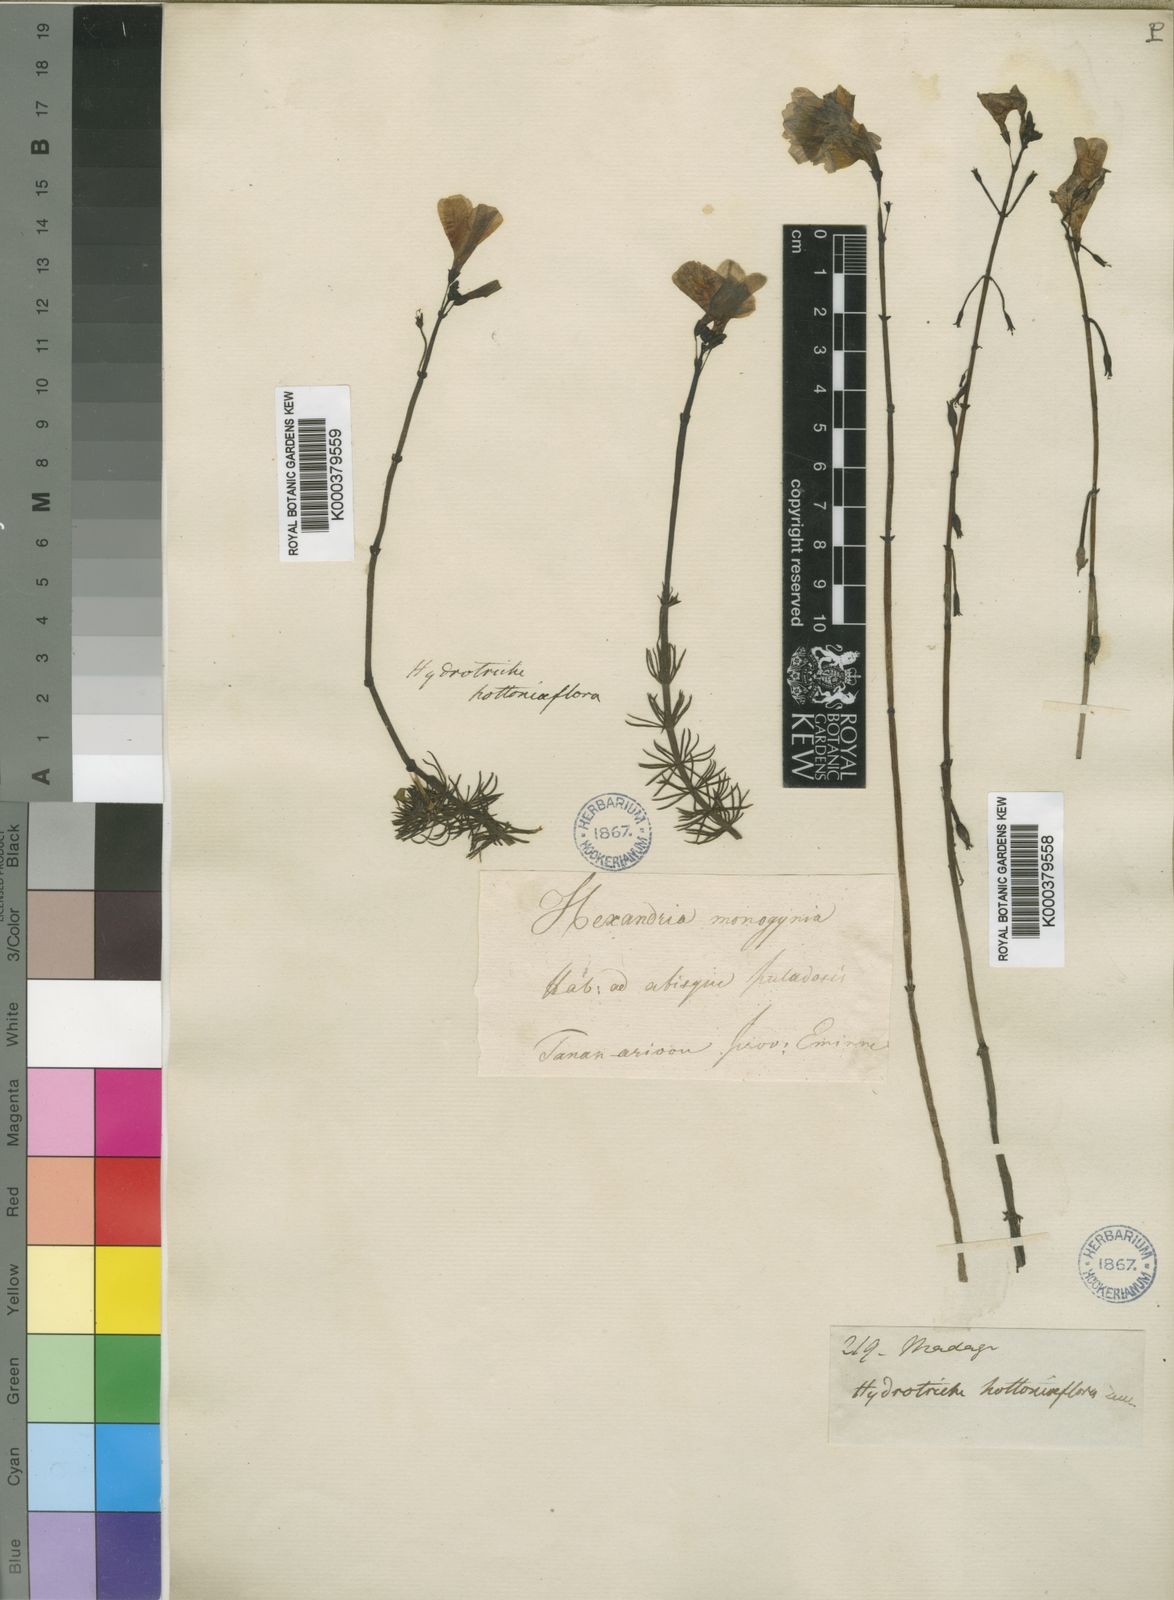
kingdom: Plantae
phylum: Tracheophyta
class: Magnoliopsida
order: Lamiales
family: Plantaginaceae
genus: Hydrotriche
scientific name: Hydrotriche
